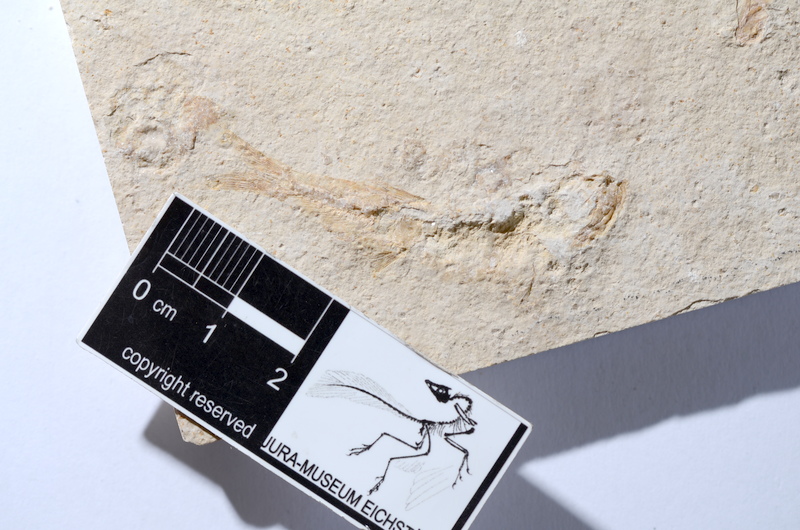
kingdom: Animalia
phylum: Chordata
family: Ascalaboidae
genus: Tharsis
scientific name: Tharsis dubius
